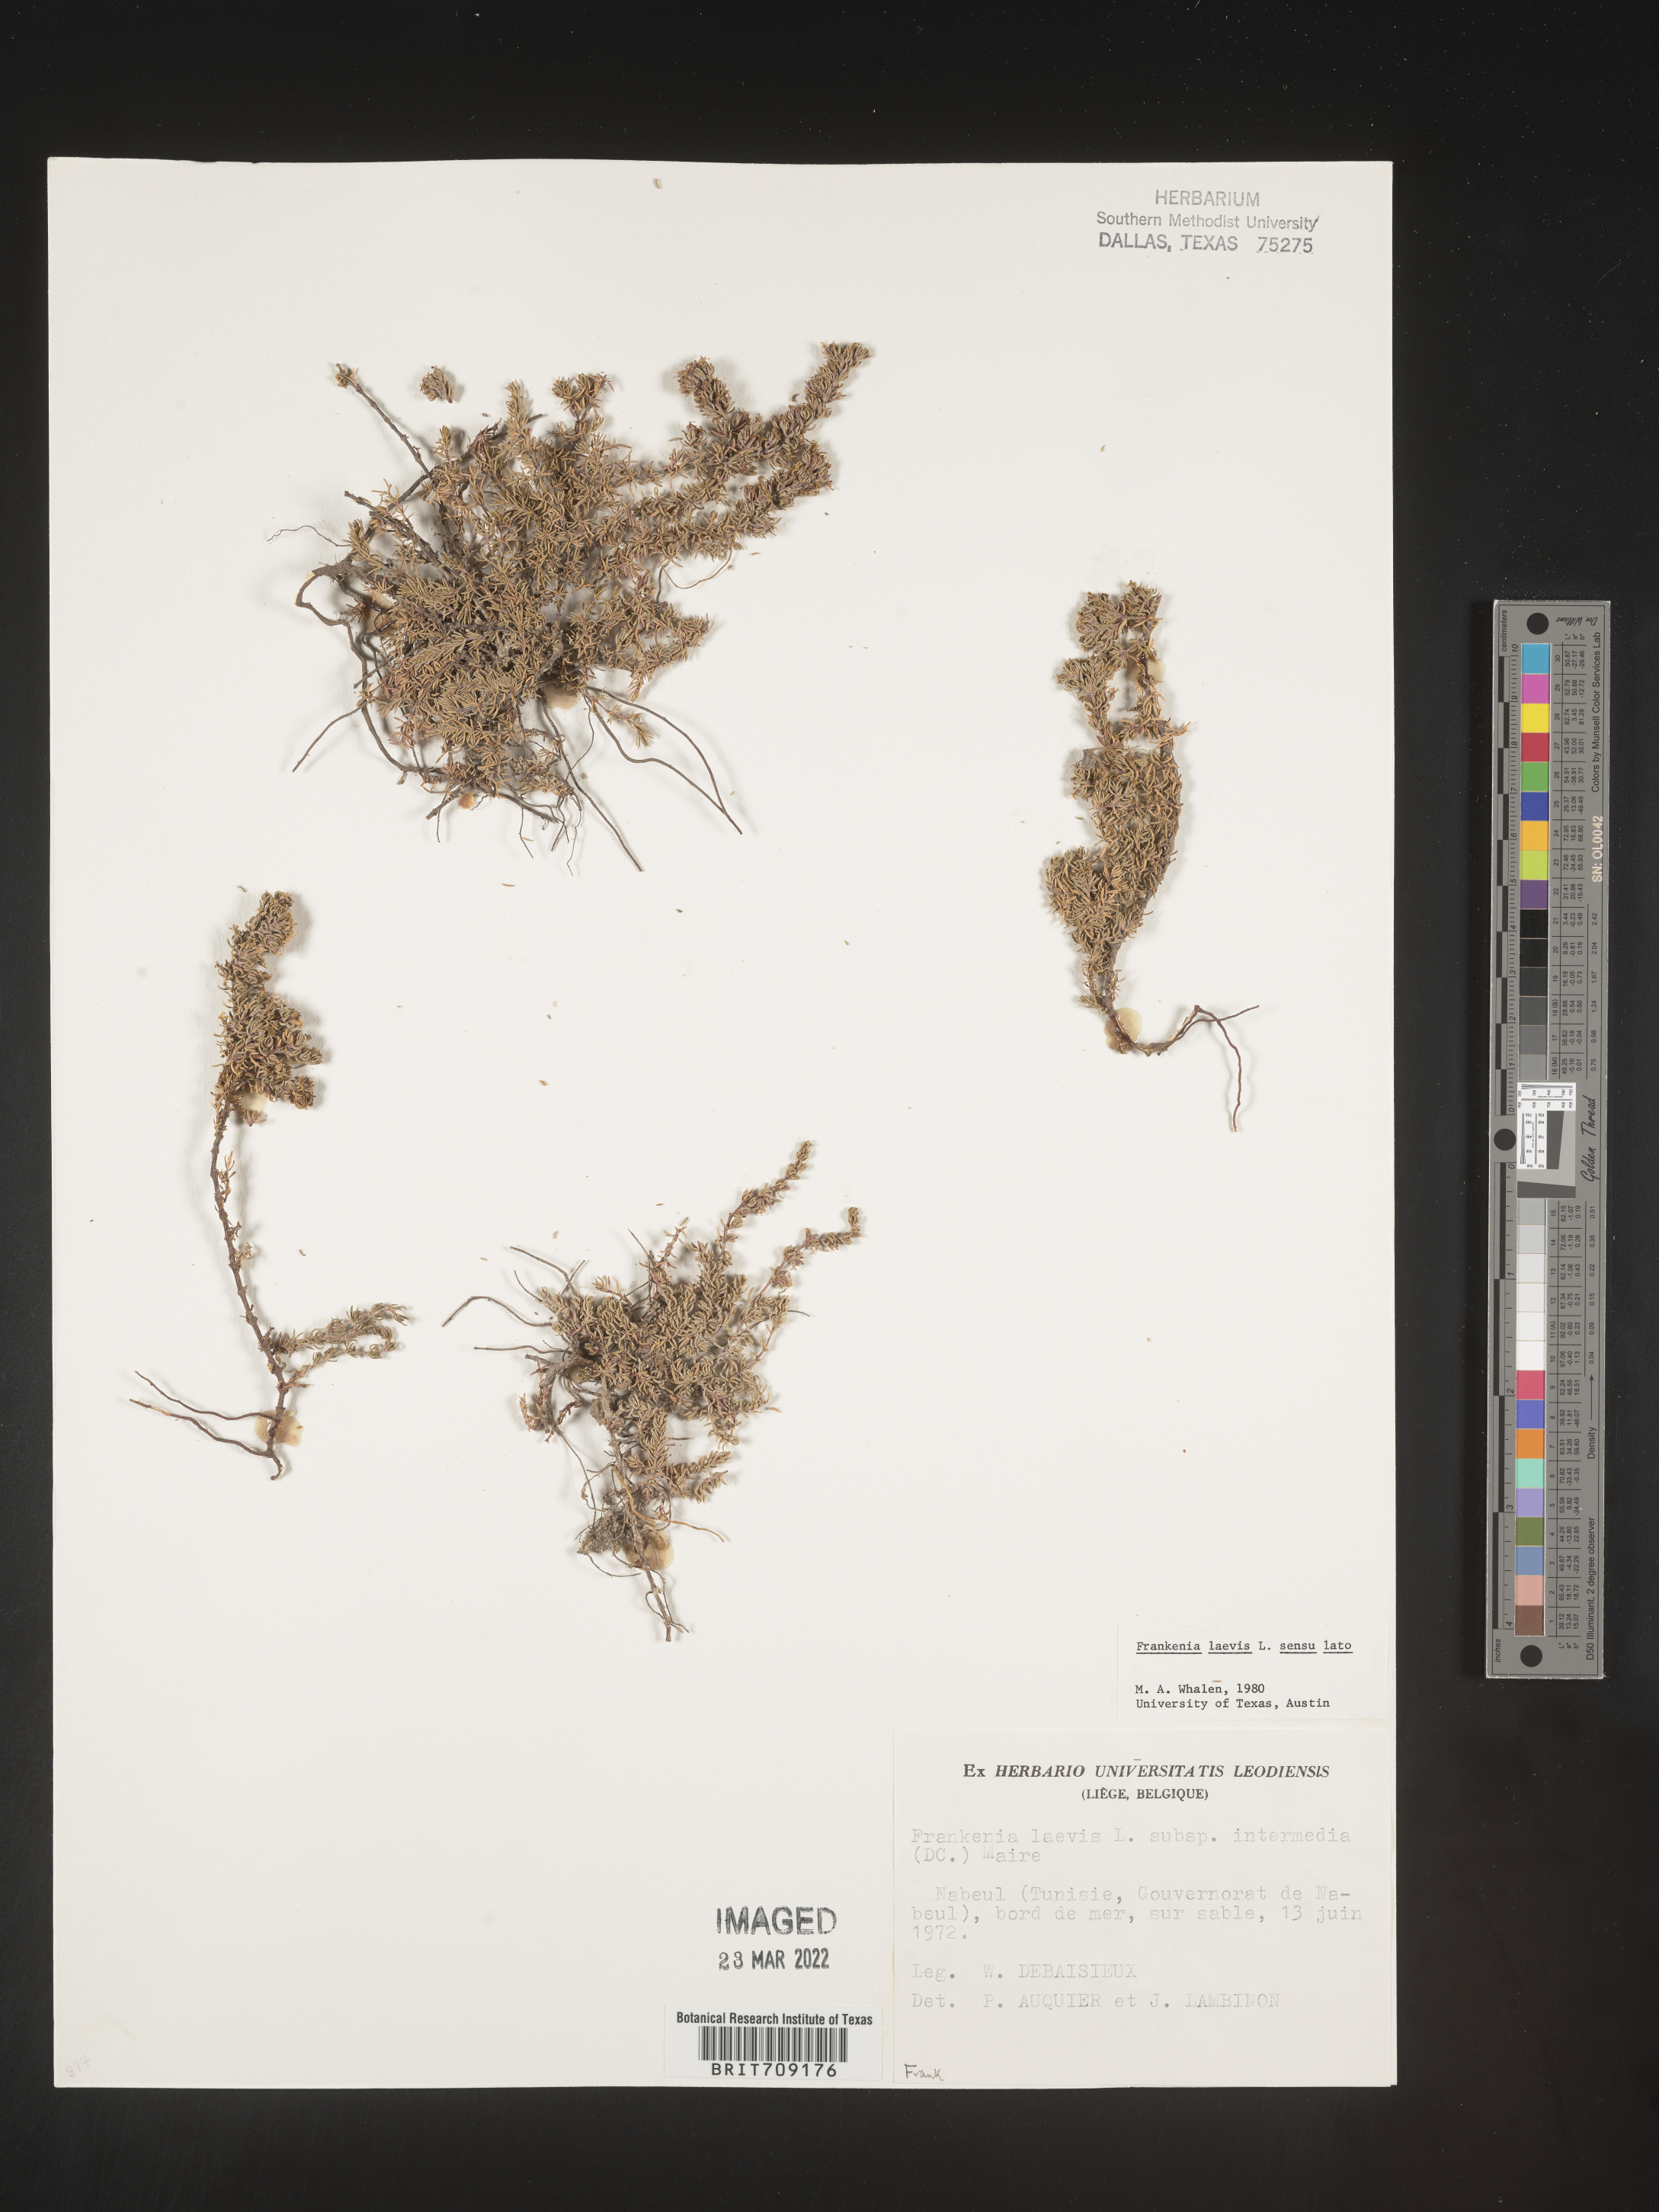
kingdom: Plantae
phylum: Tracheophyta
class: Magnoliopsida
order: Caryophyllales
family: Frankeniaceae
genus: Frankenia
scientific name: Frankenia
